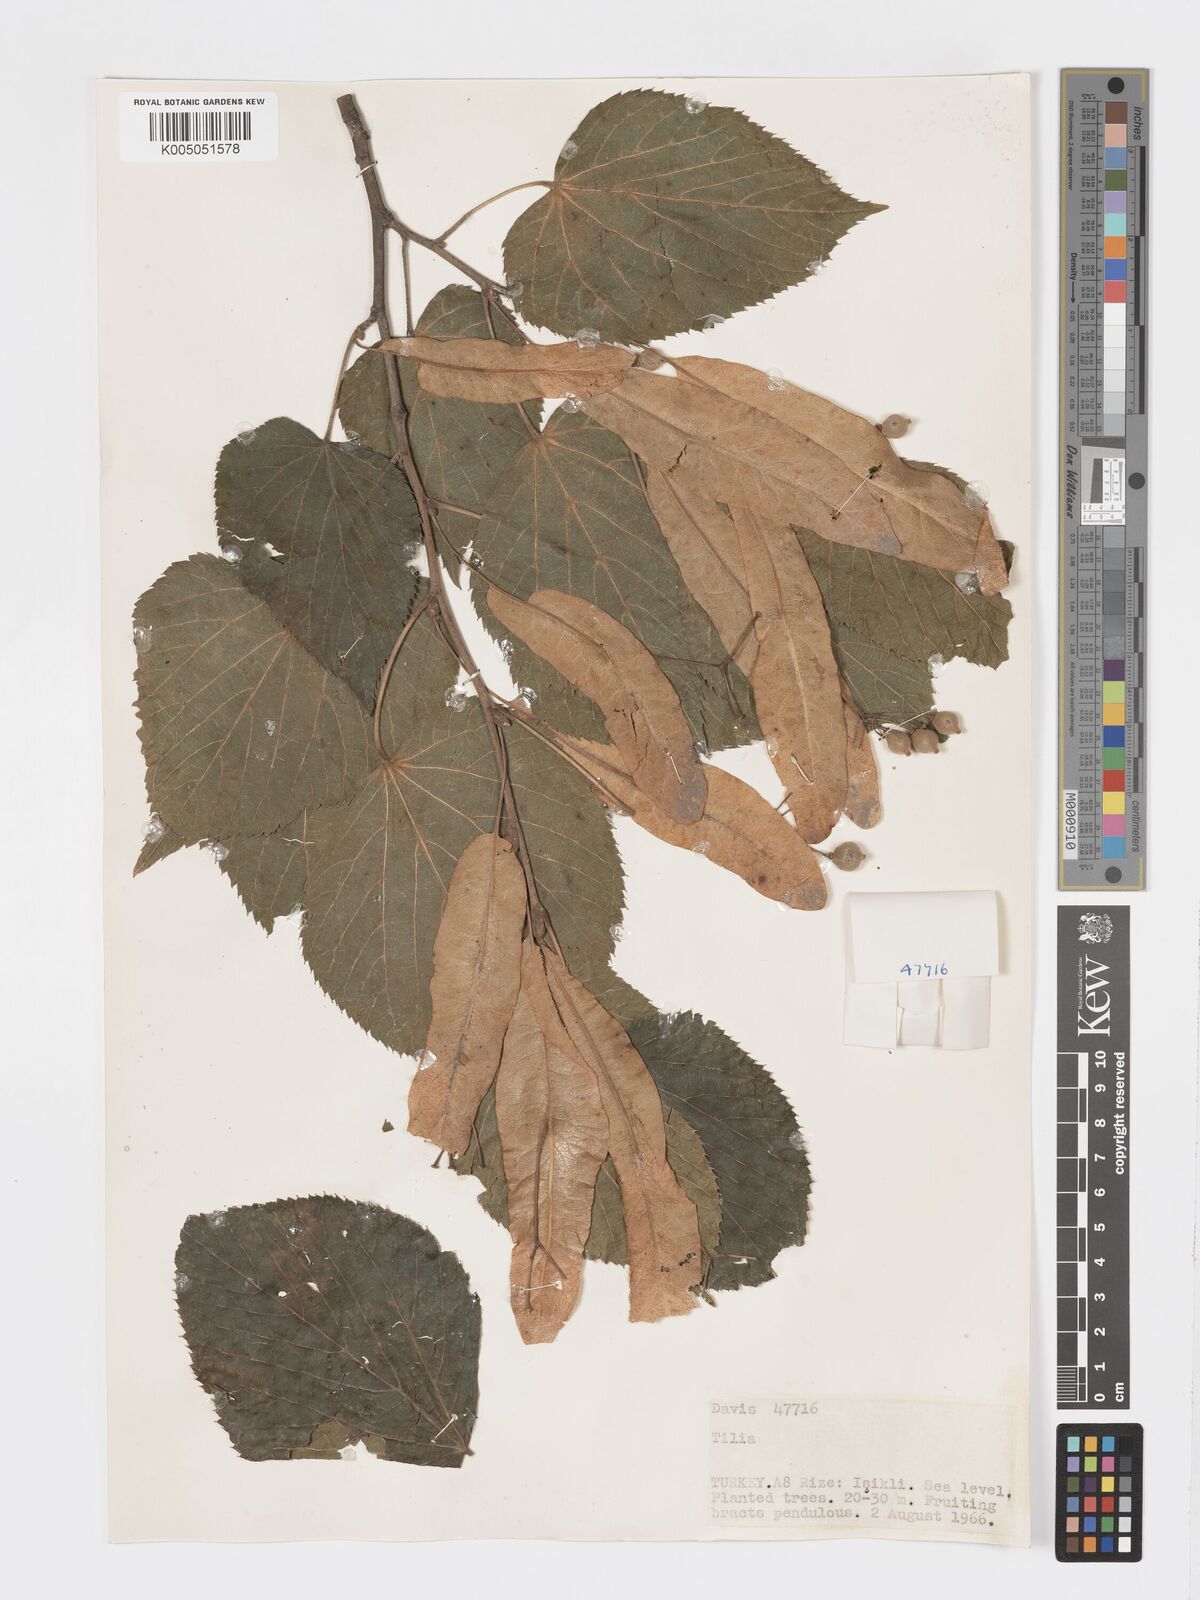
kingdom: Plantae
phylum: Tracheophyta
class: Magnoliopsida
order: Malvales
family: Malvaceae
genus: Tilia
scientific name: Tilia
